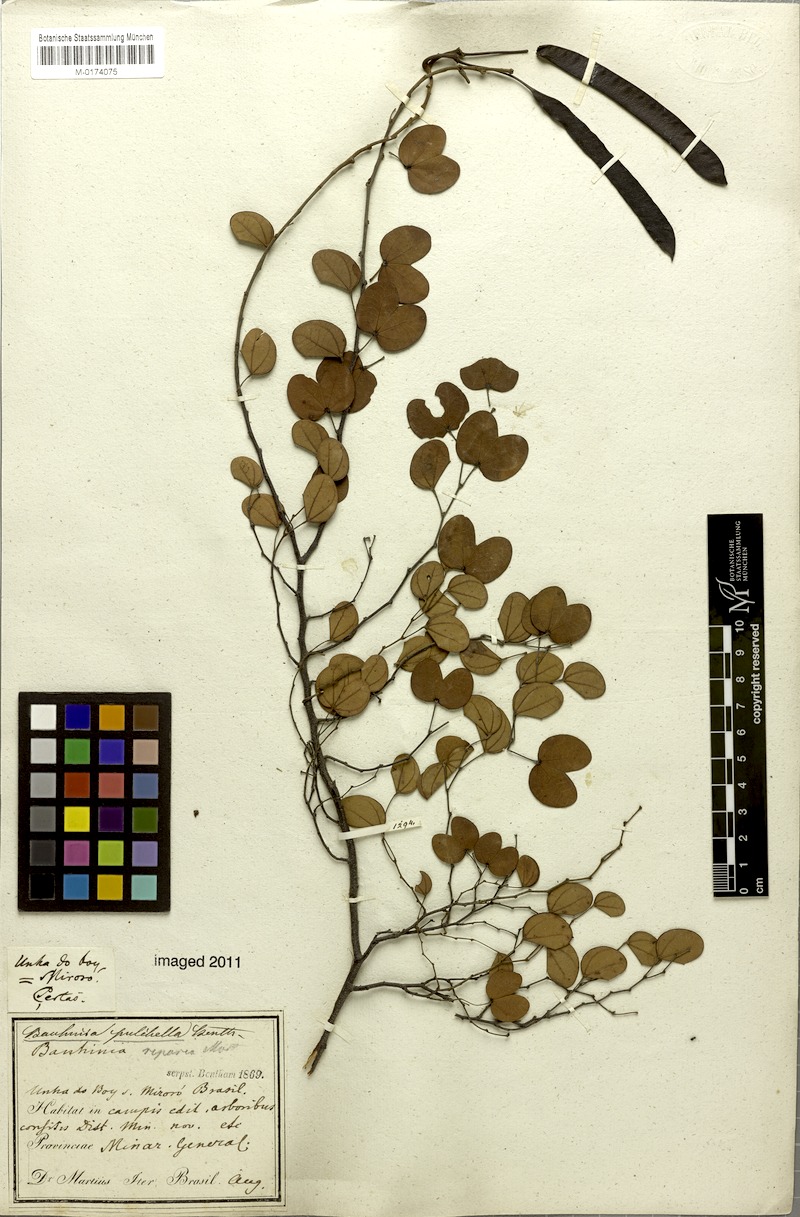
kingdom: Plantae
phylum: Tracheophyta
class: Magnoliopsida
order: Fabales
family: Fabaceae
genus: Bauhinia
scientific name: Bauhinia pulchella
